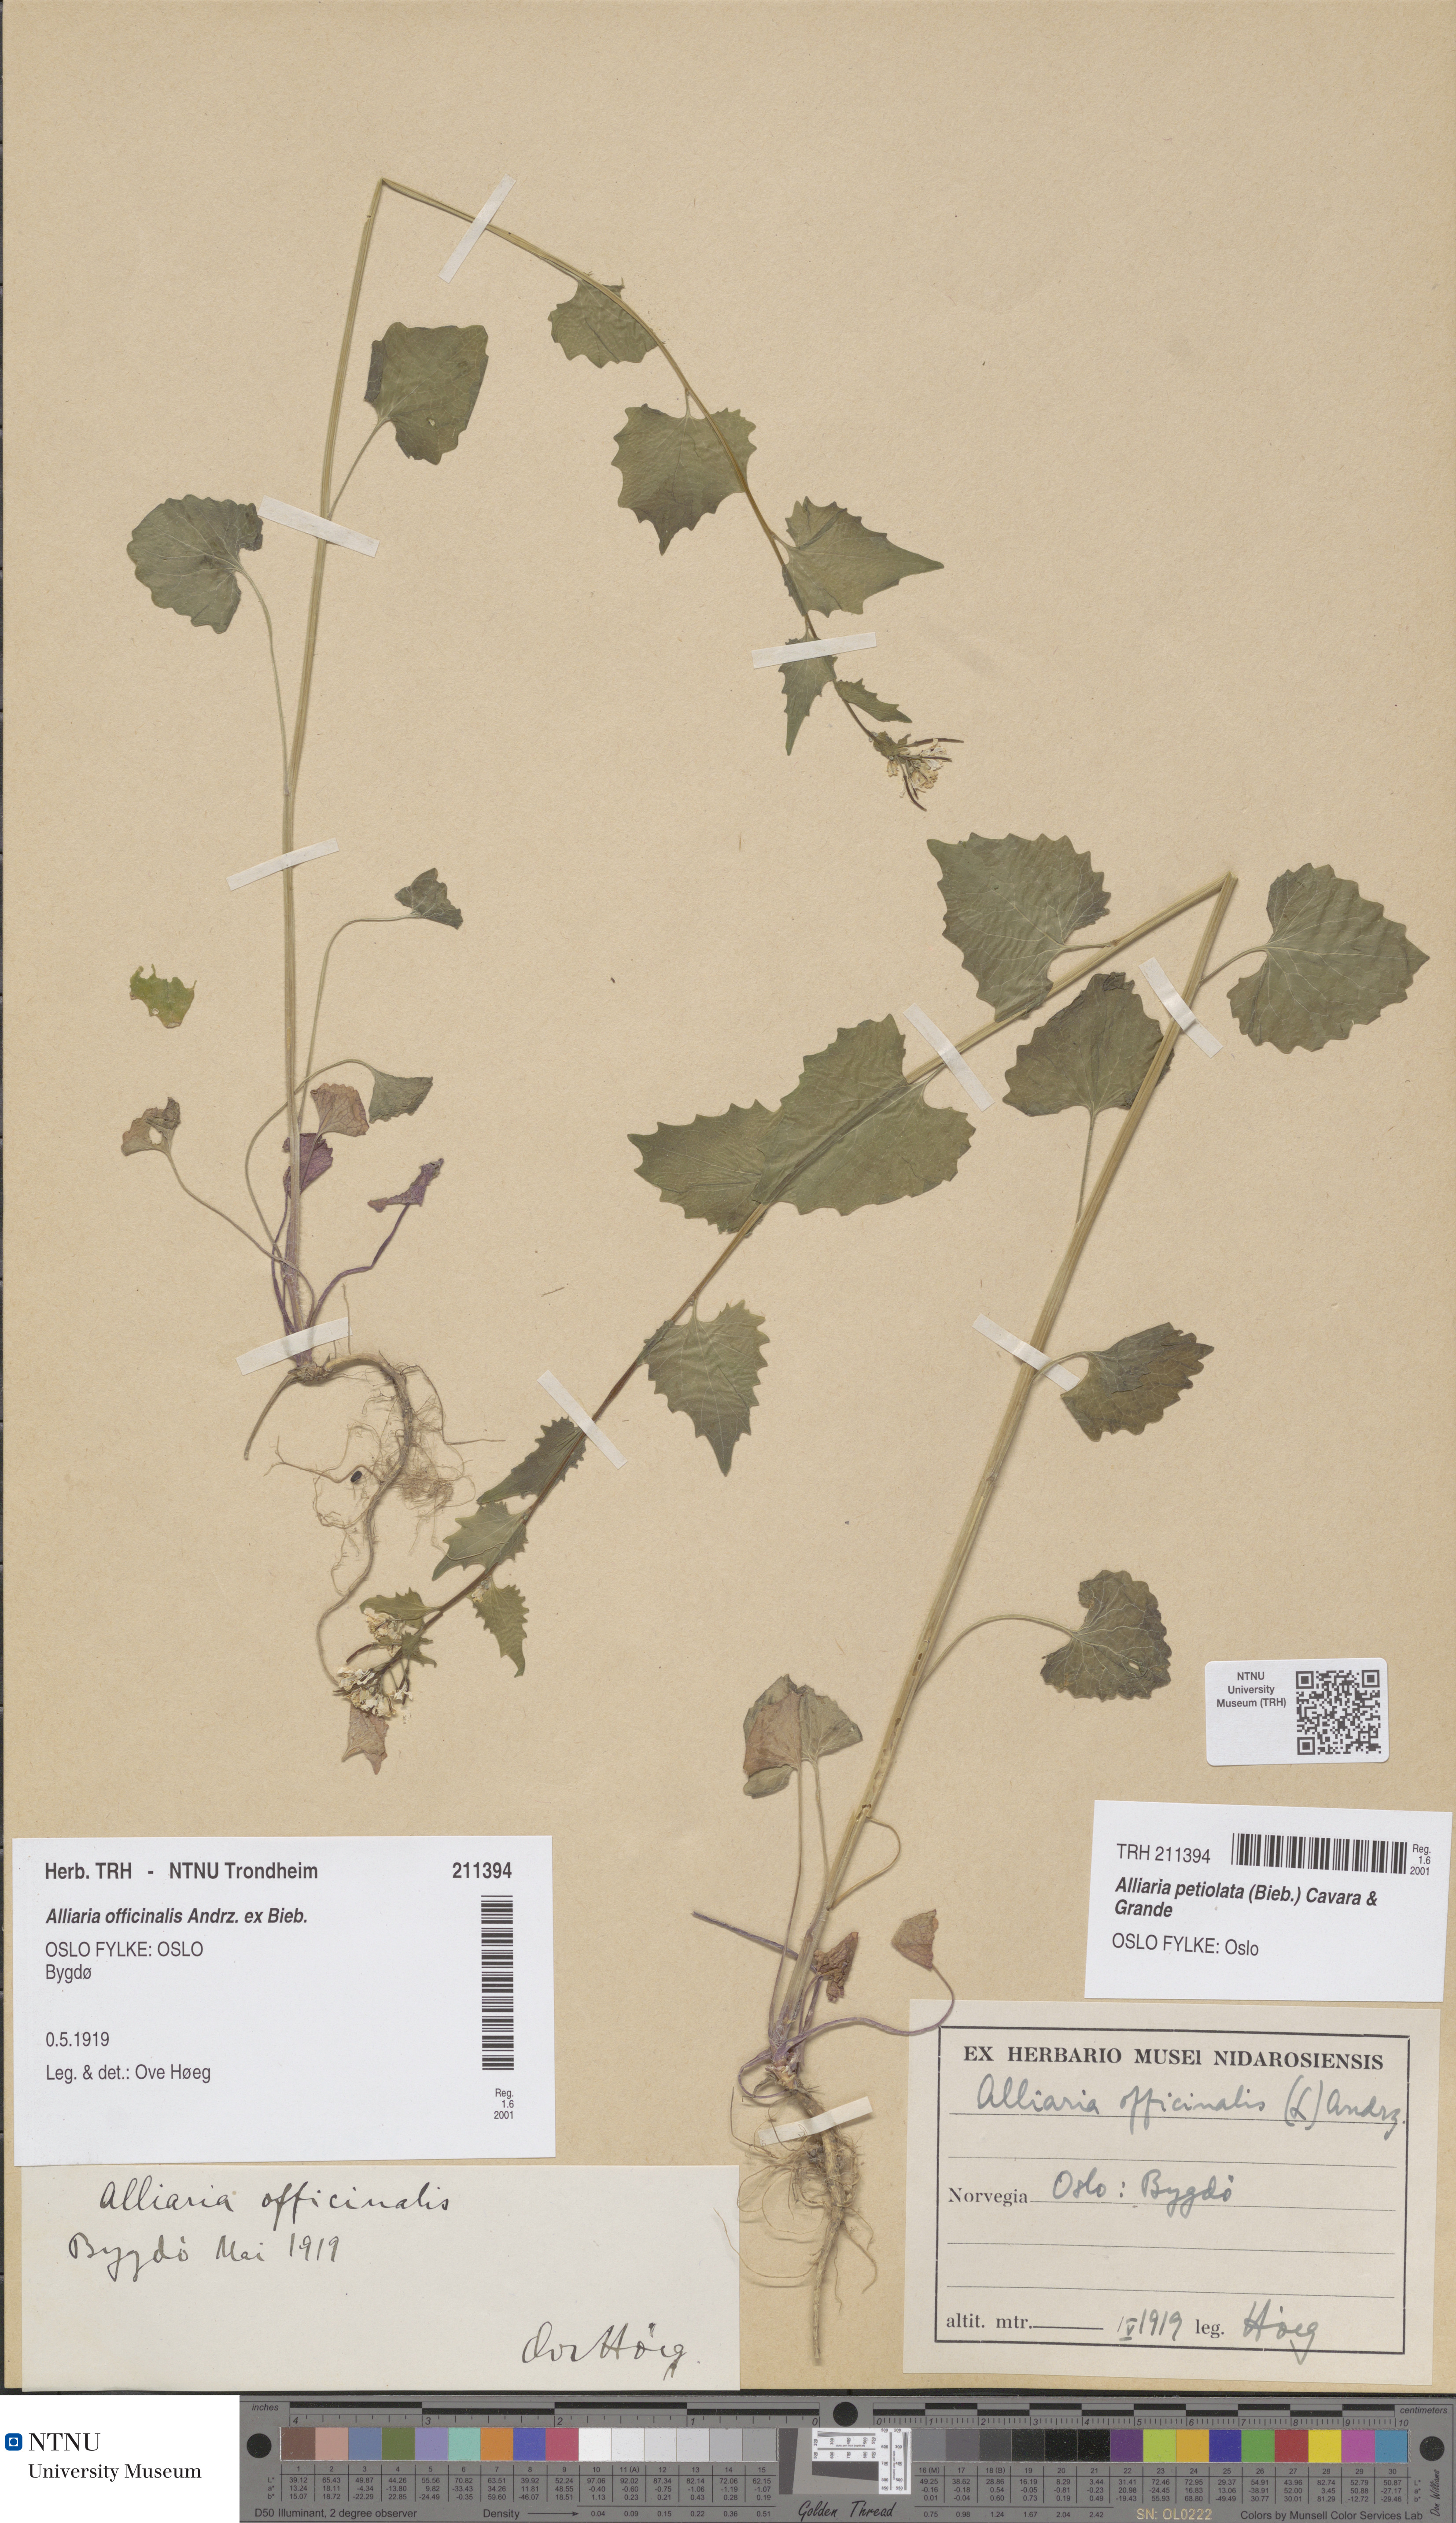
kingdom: Plantae
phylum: Tracheophyta
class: Magnoliopsida
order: Brassicales
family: Brassicaceae
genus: Alliaria
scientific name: Alliaria petiolata
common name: Garlic mustard
